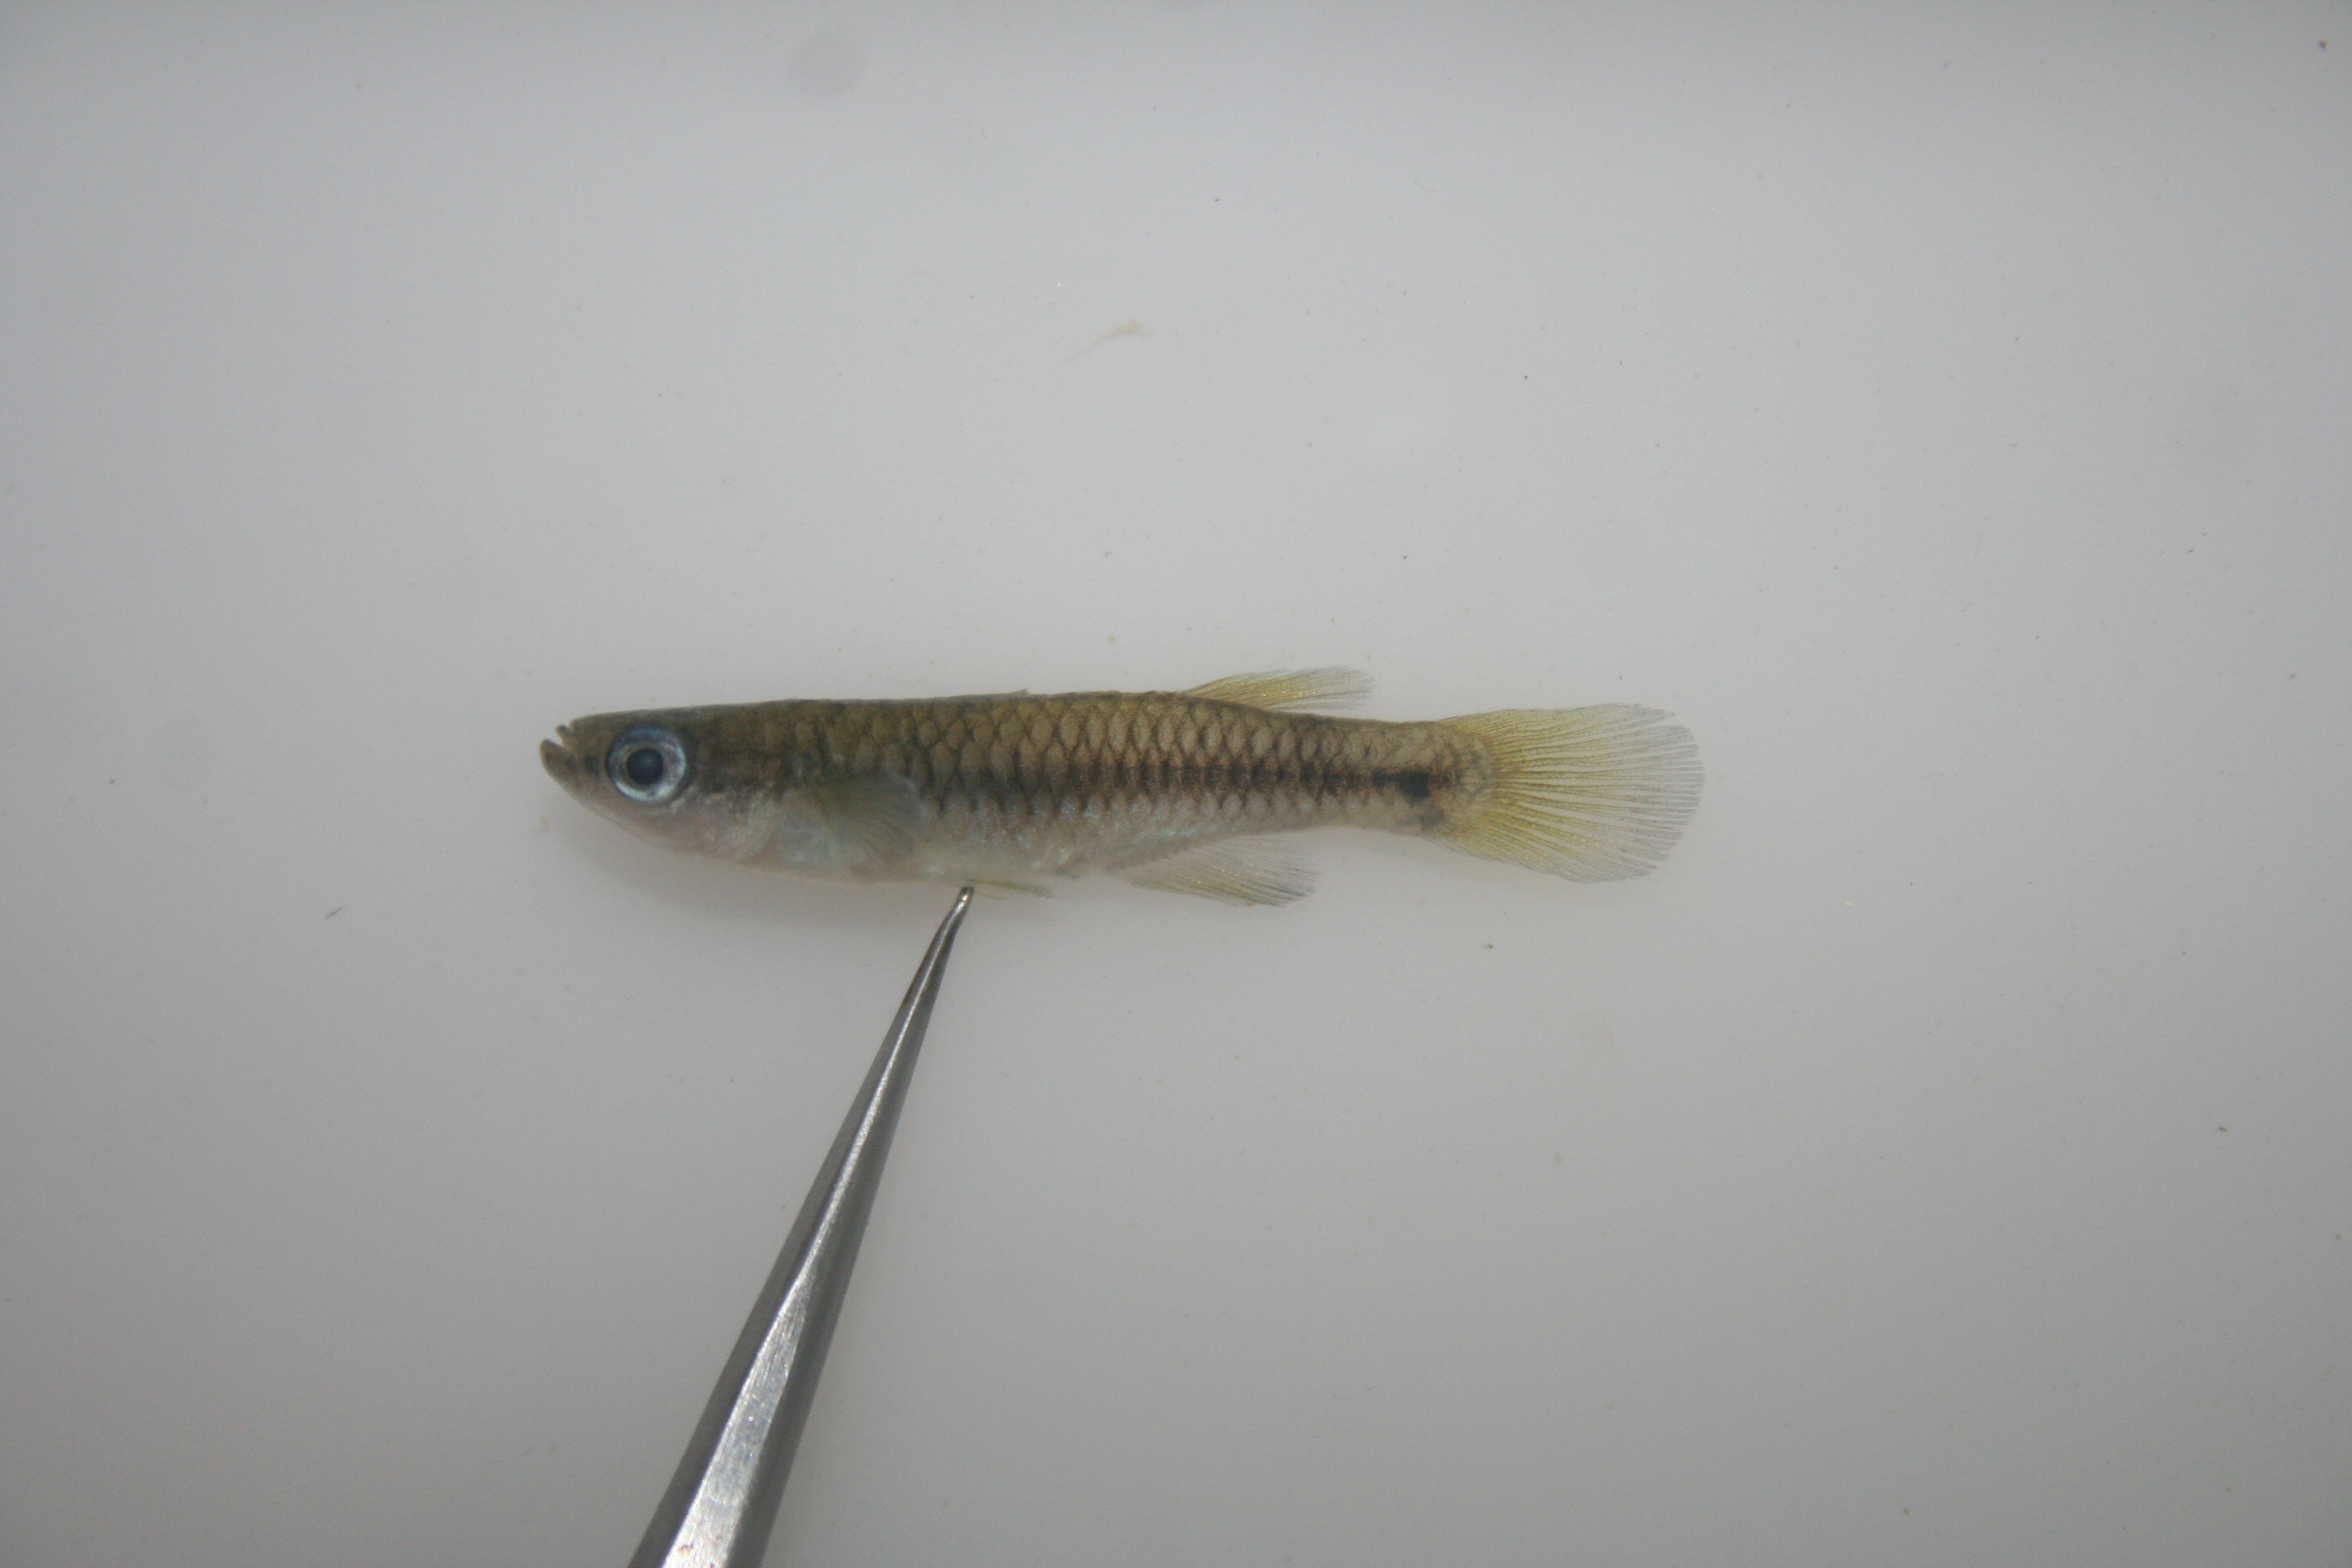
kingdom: Animalia
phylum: Chordata
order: Cyprinodontiformes
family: Poeciliidae
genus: Lacustricola
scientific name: Lacustricola
